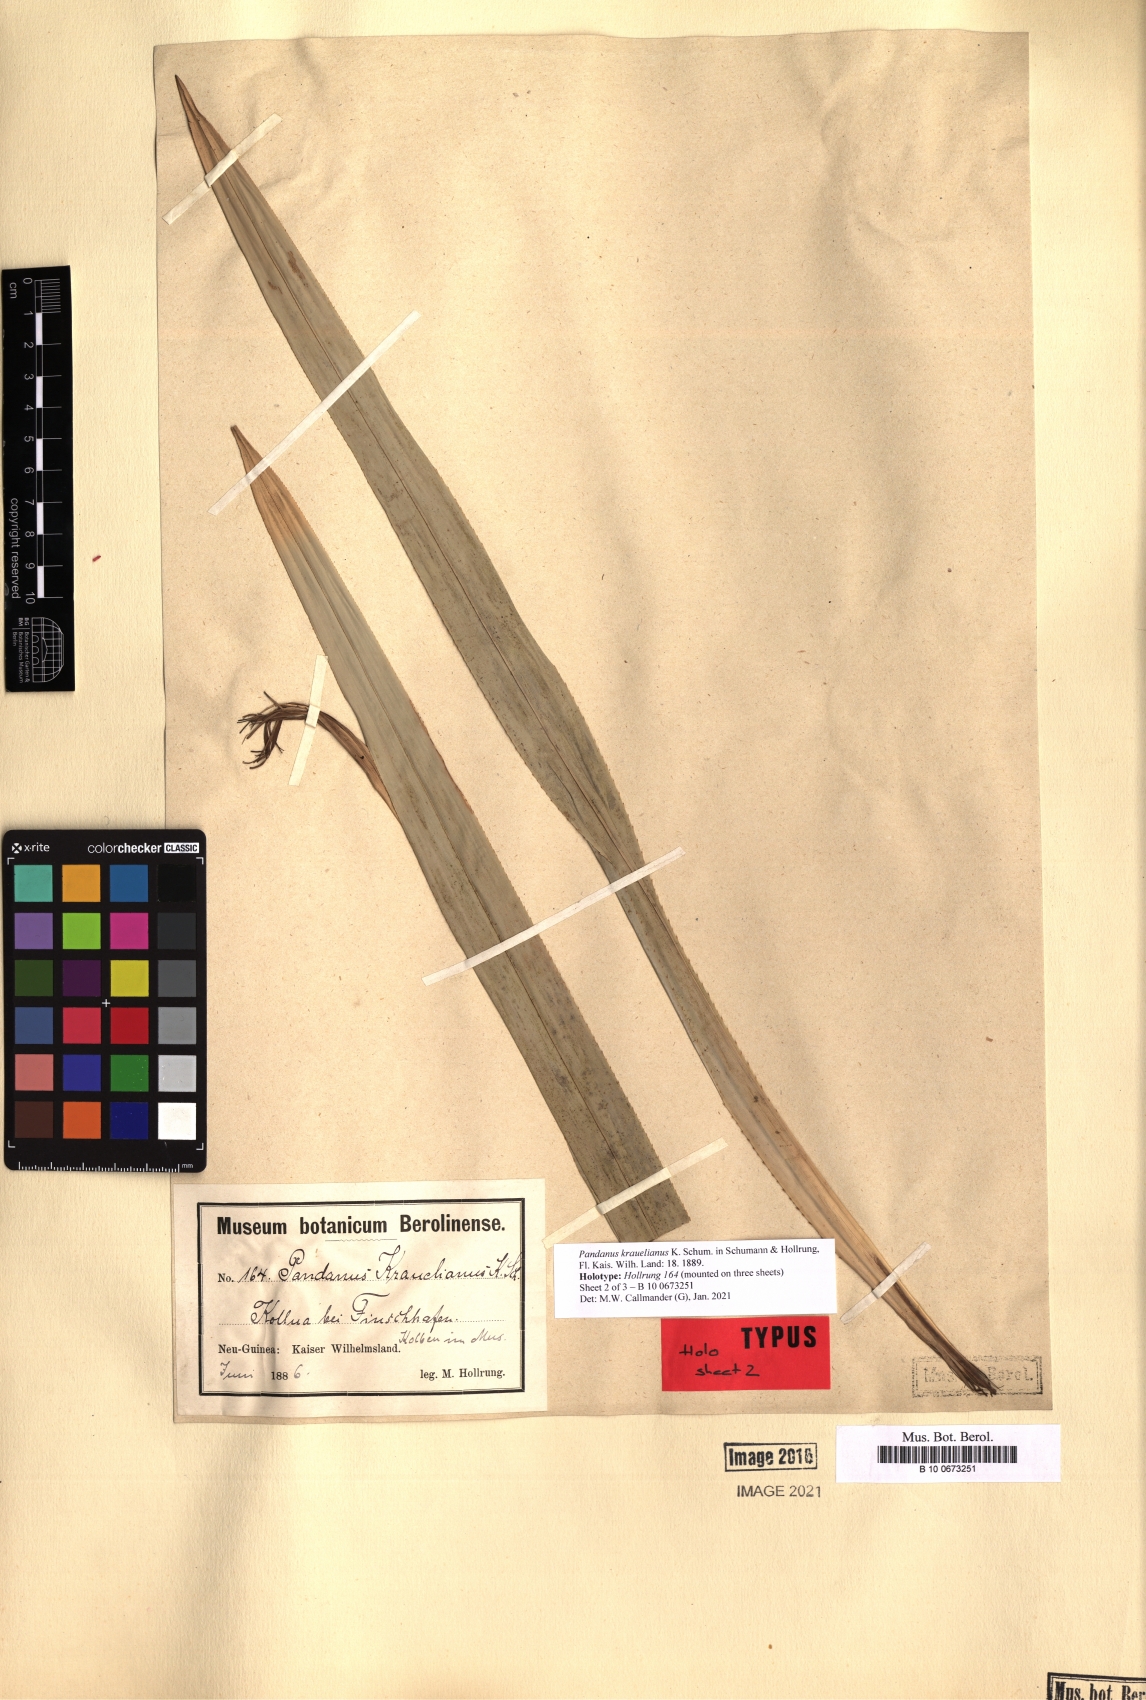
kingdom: Plantae
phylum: Tracheophyta
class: Liliopsida
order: Pandanales
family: Pandanaceae
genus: Pandanus
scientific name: Pandanus krauelianus
